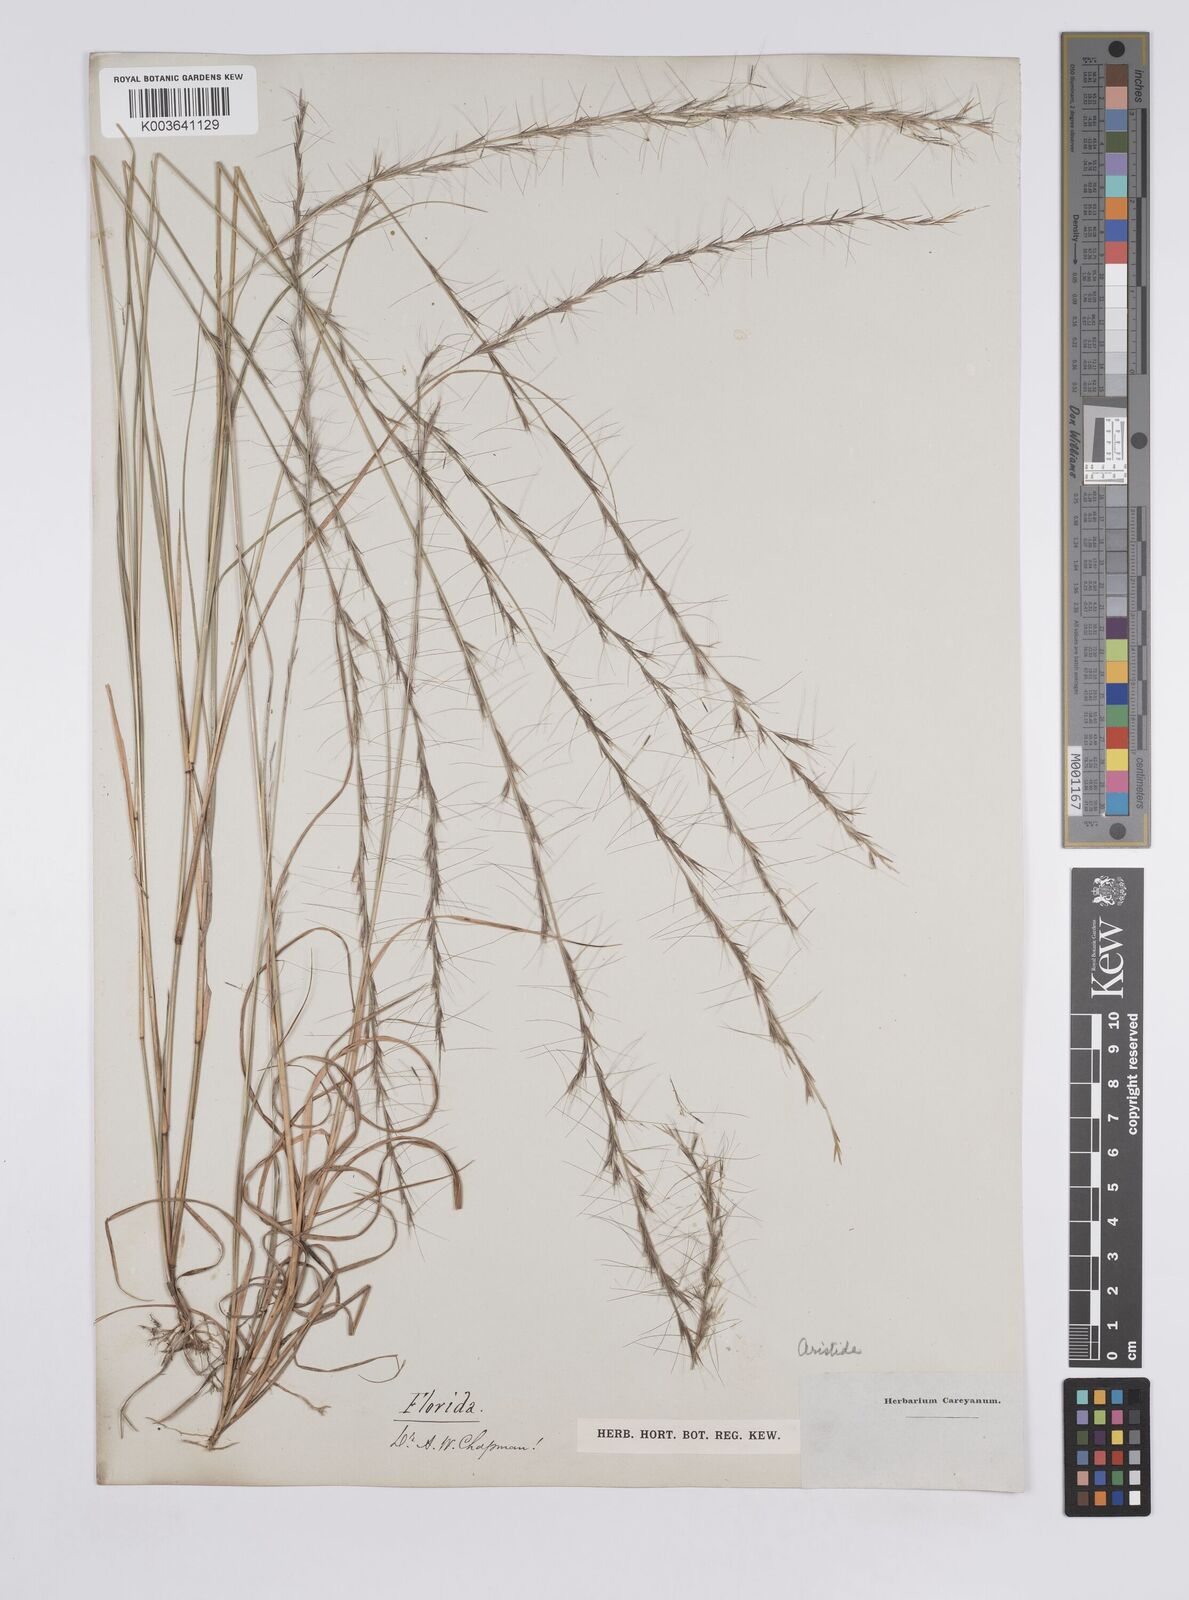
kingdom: Plantae
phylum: Tracheophyta
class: Liliopsida
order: Poales
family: Poaceae
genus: Aristida
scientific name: Aristida palustris
